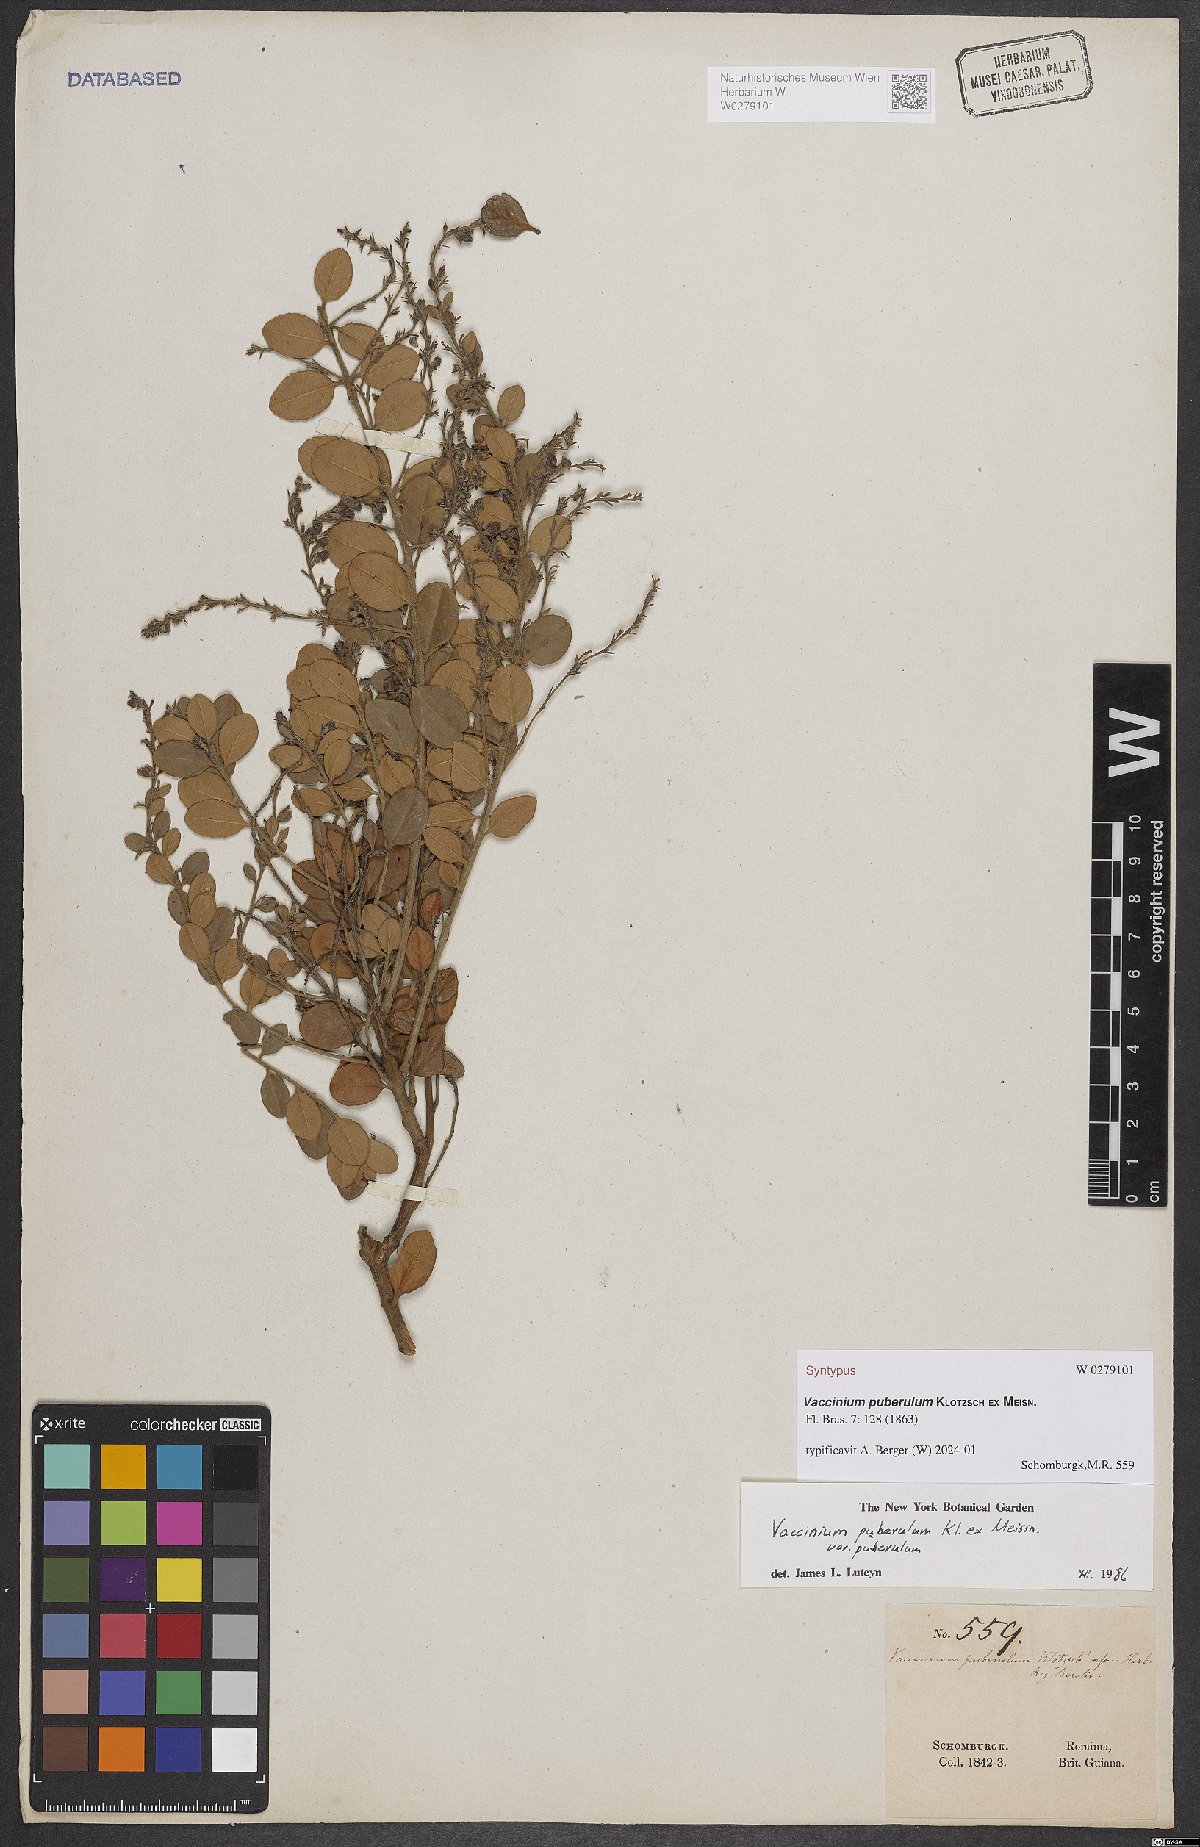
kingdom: Plantae
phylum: Tracheophyta
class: Magnoliopsida
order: Ericales
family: Ericaceae
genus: Vaccinium
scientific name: Vaccinium puberulum
